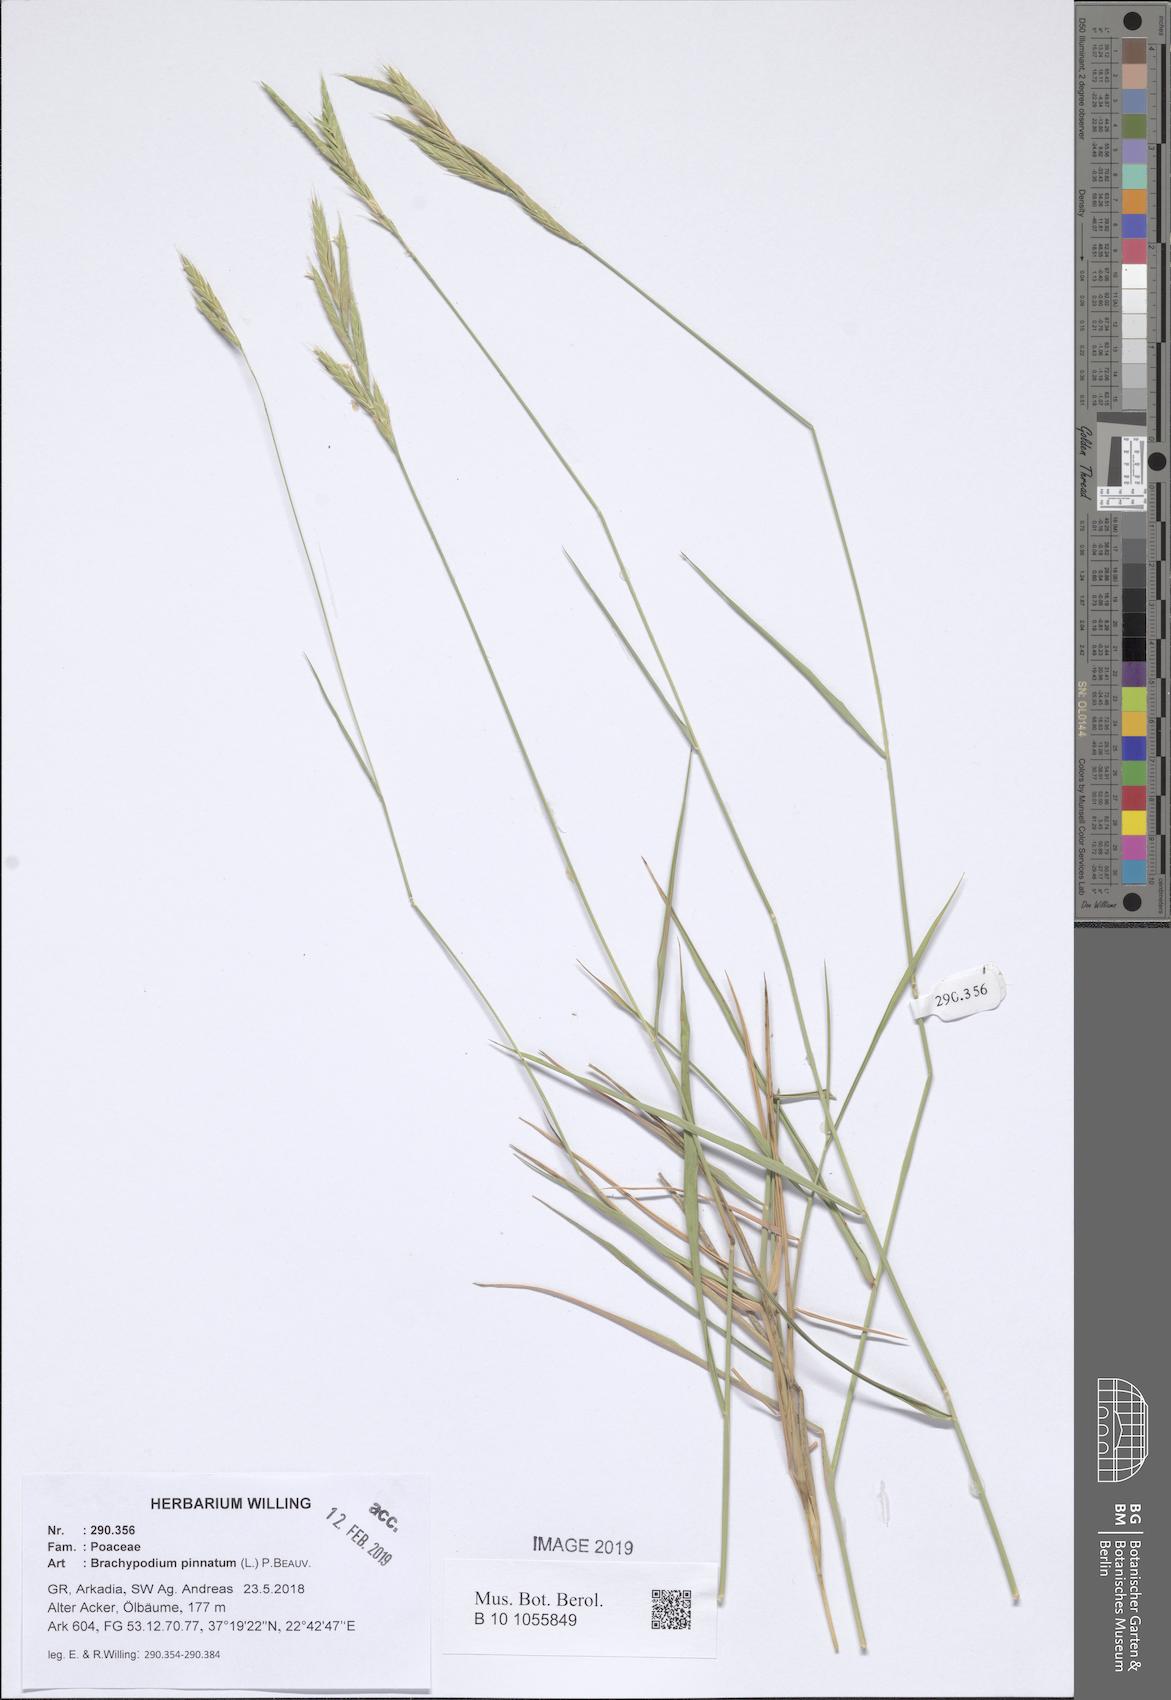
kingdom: Plantae
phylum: Tracheophyta
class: Liliopsida
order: Poales
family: Poaceae
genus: Brachypodium
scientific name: Brachypodium pinnatum
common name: Tor grass
